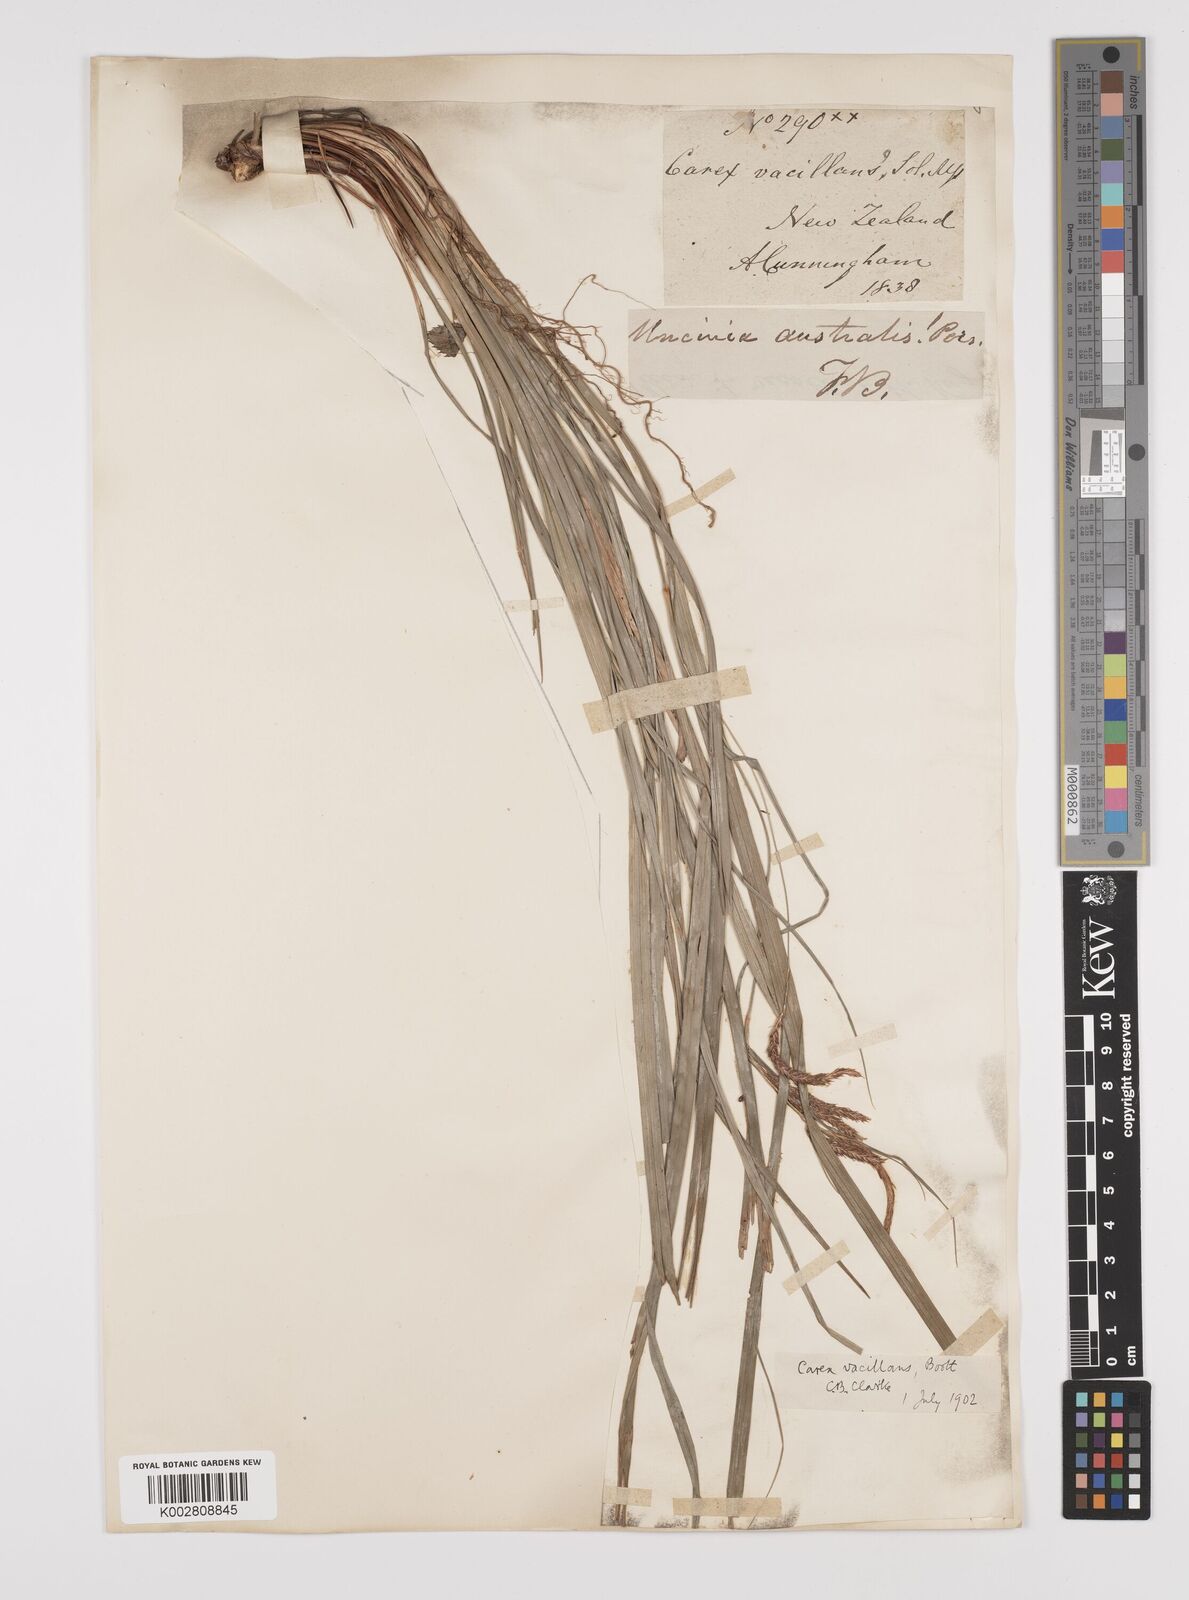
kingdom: Plantae
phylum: Tracheophyta
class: Liliopsida
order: Poales
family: Cyperaceae
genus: Carex
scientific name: Carex spinirostris
